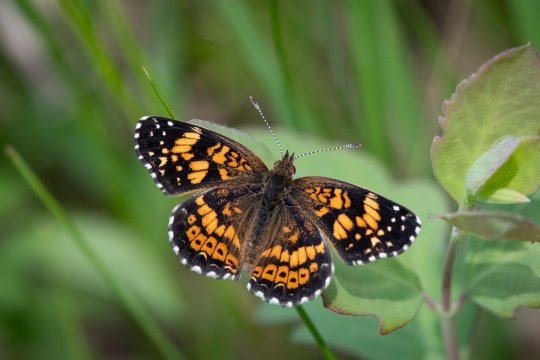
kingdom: Animalia
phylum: Arthropoda
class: Insecta
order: Lepidoptera
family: Nymphalidae
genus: Chlosyne
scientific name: Chlosyne gorgone
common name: Gorgone Checkerspot
